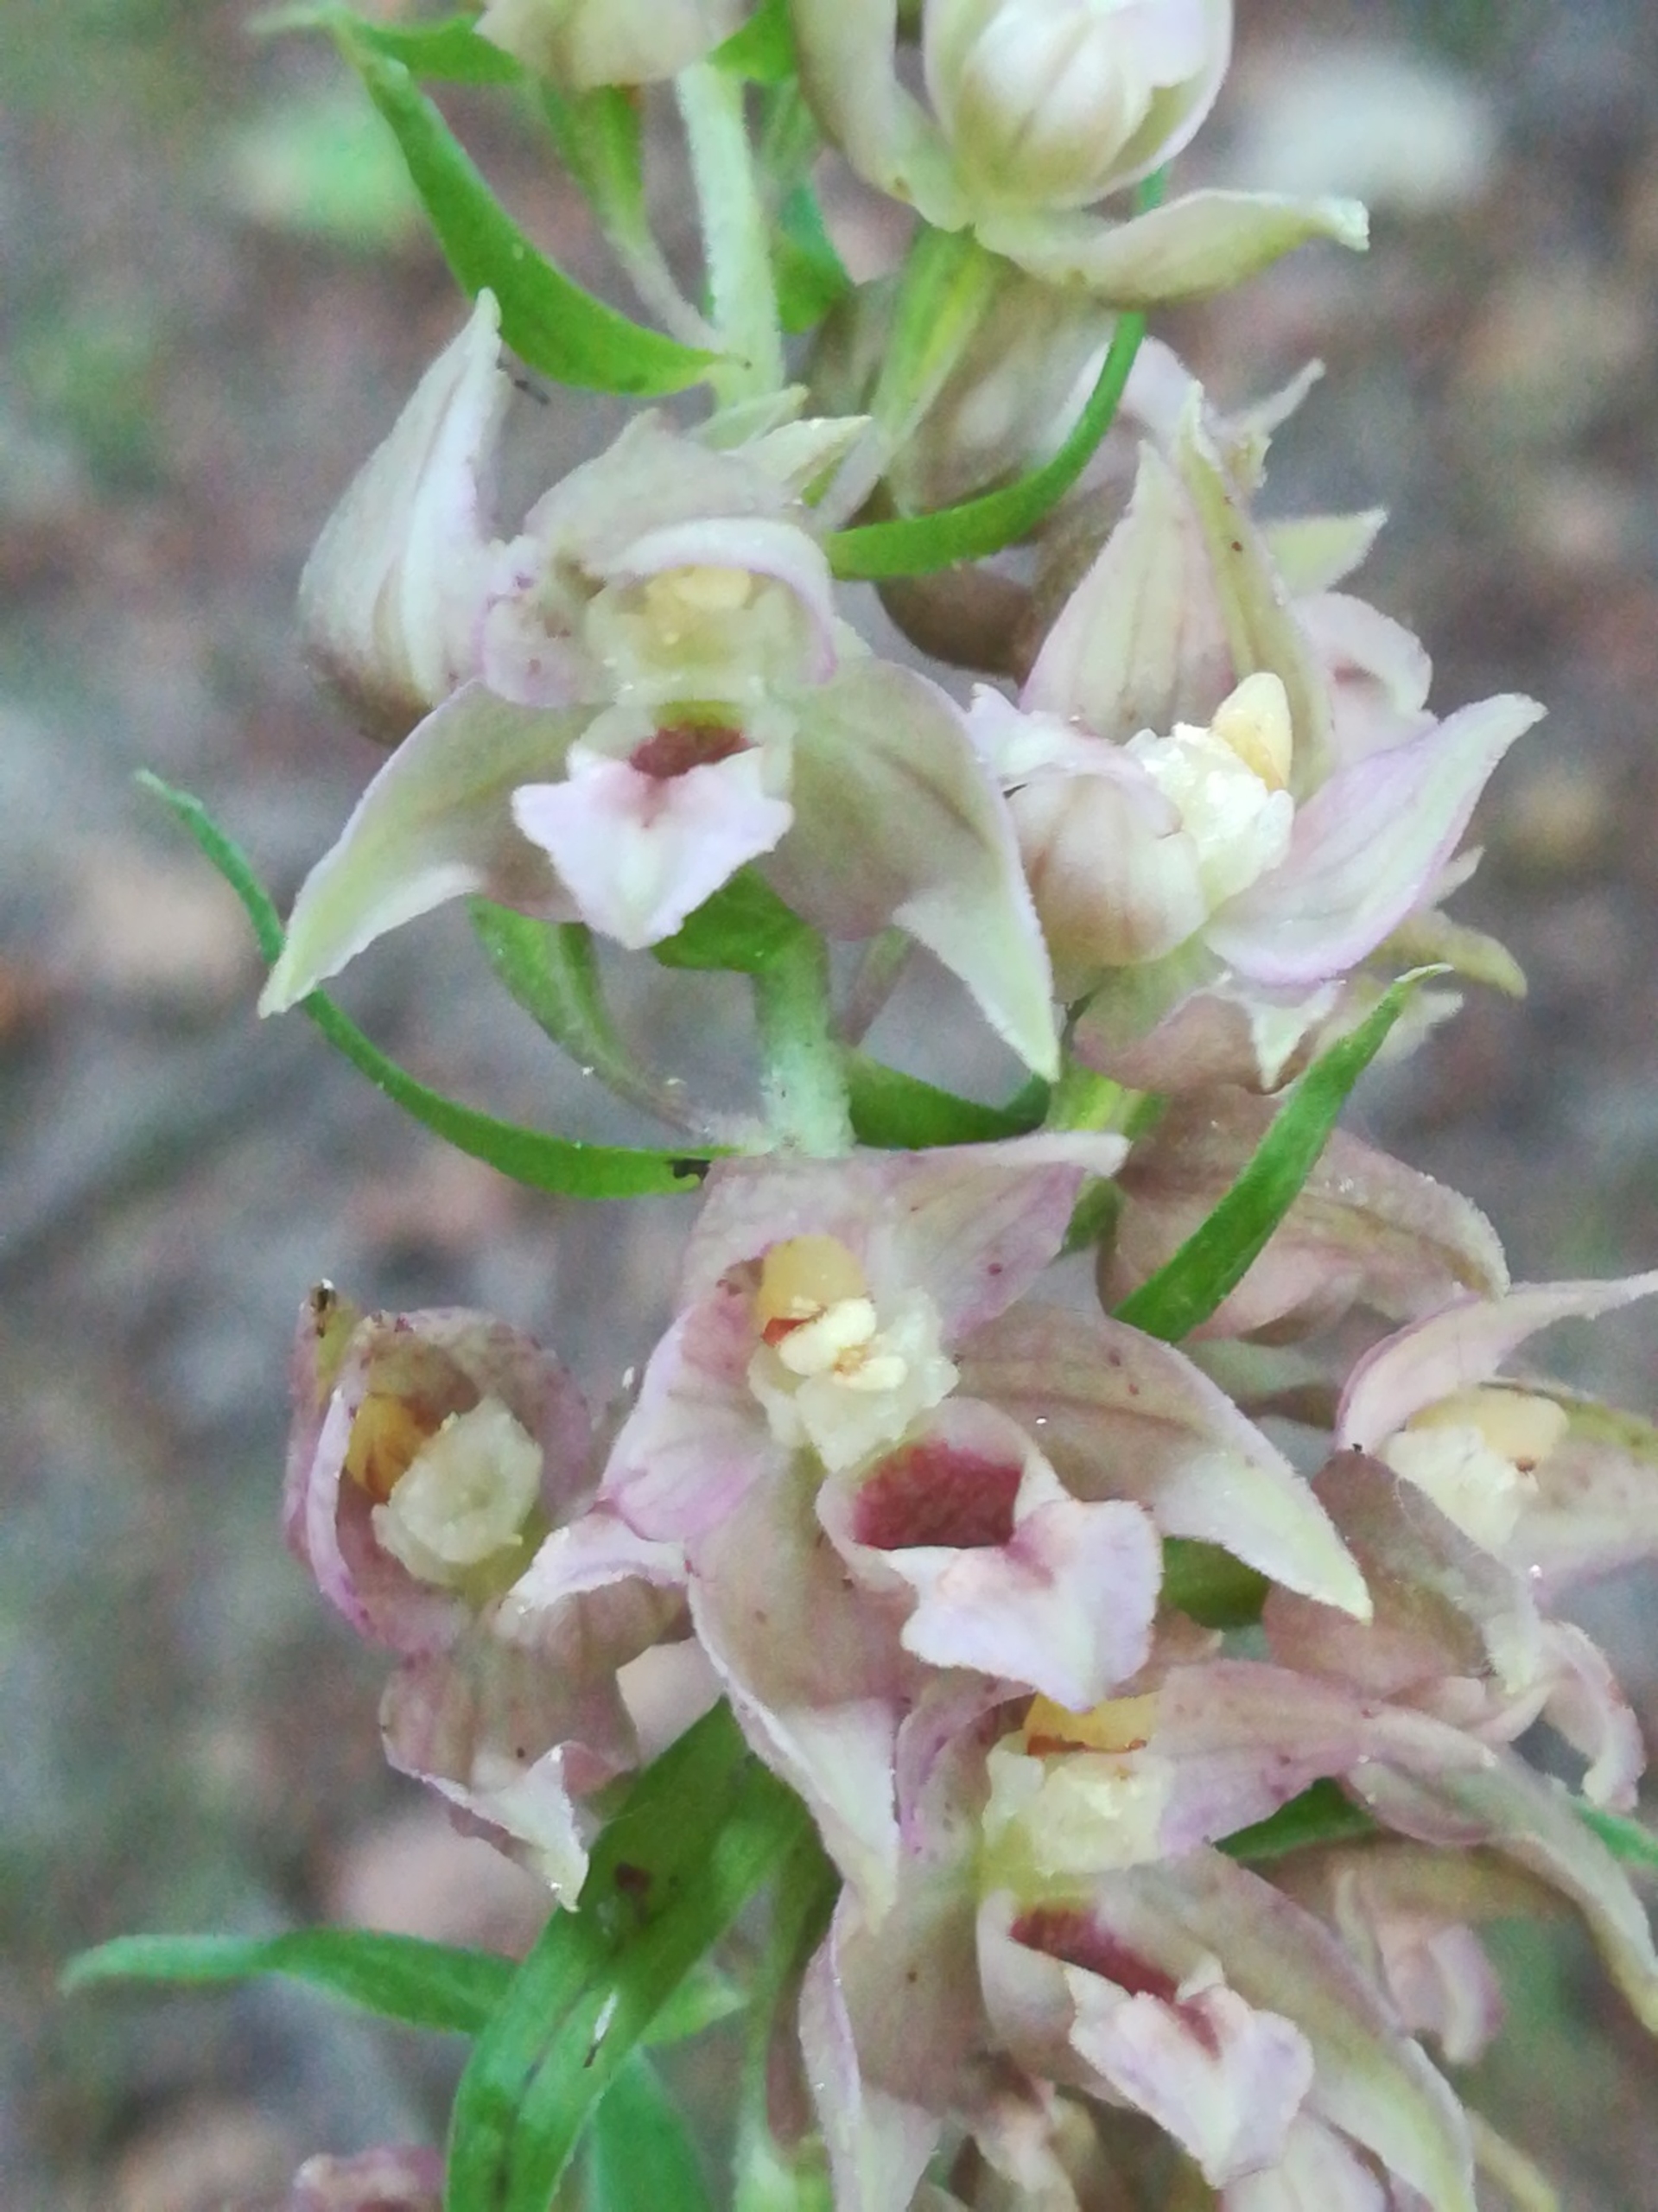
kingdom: Plantae
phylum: Tracheophyta
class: Liliopsida
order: Asparagales
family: Orchidaceae
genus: Epipactis
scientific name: Epipactis helleborine
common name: Skov-hullæbe
